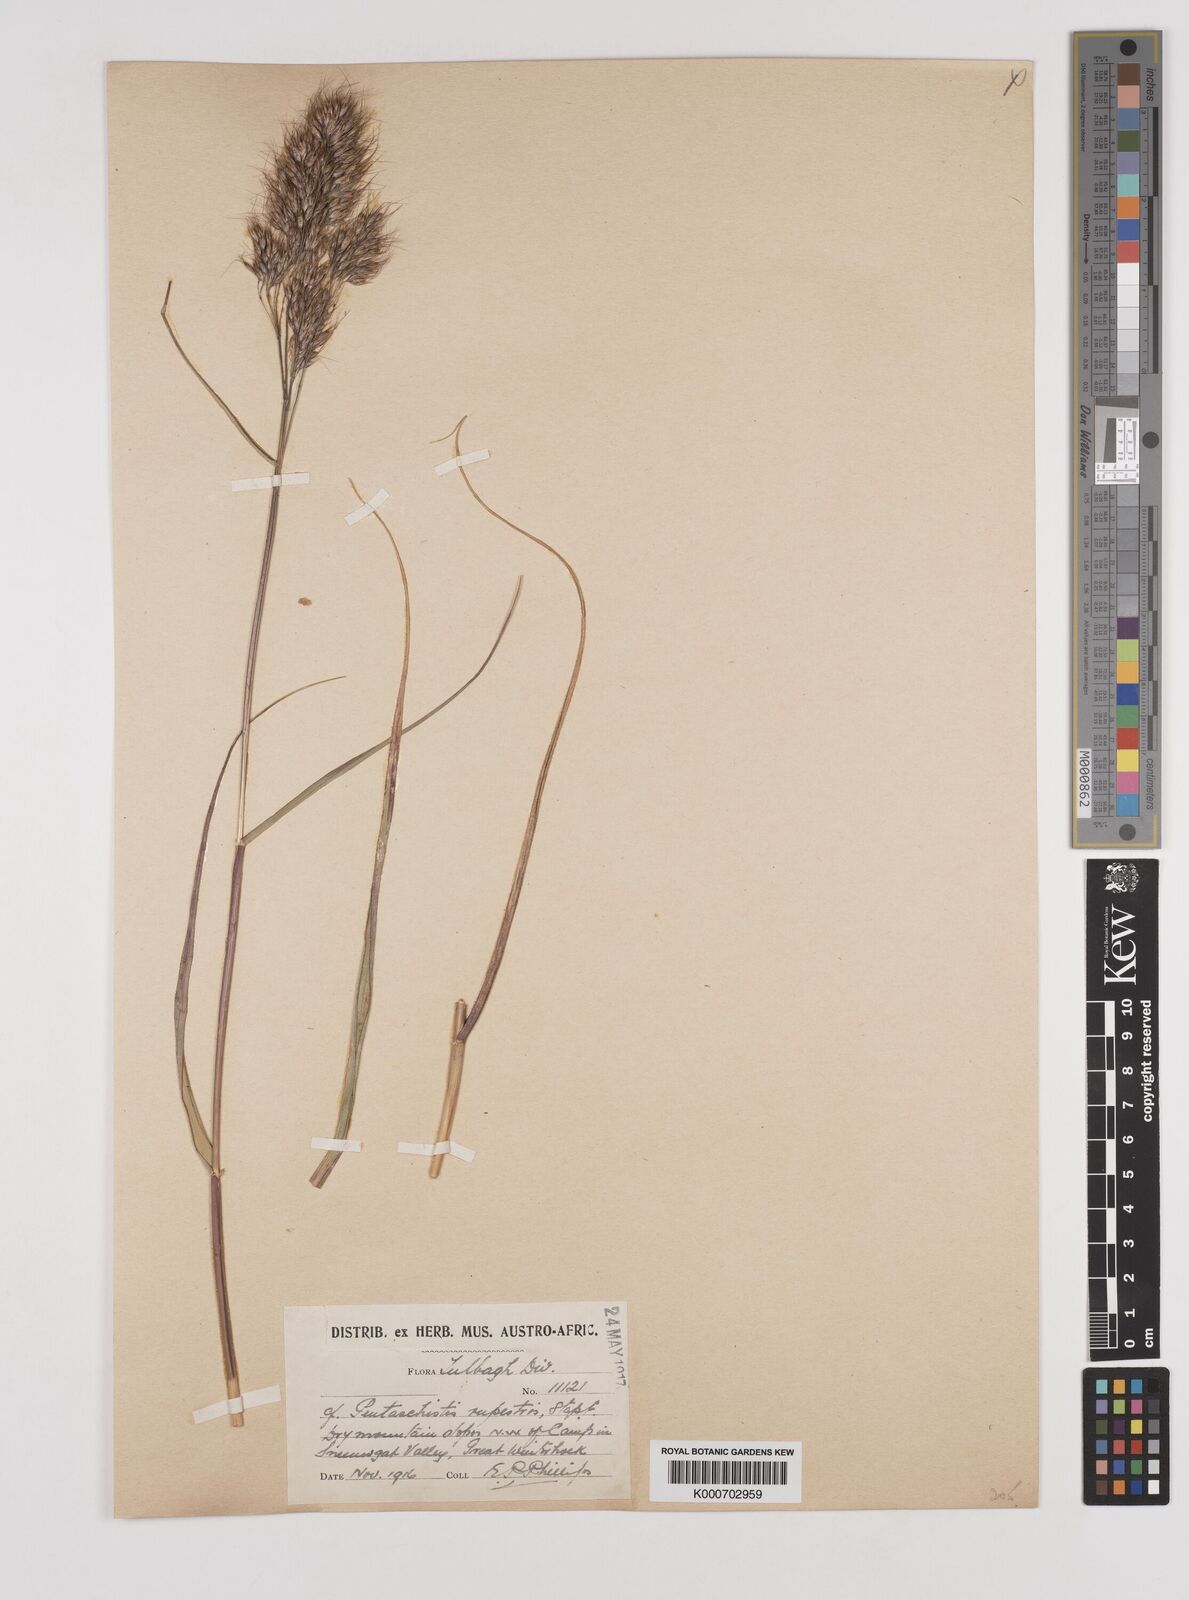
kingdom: Plantae
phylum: Tracheophyta
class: Liliopsida
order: Poales
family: Poaceae
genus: Pentameris
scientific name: Pentameris rupestris
